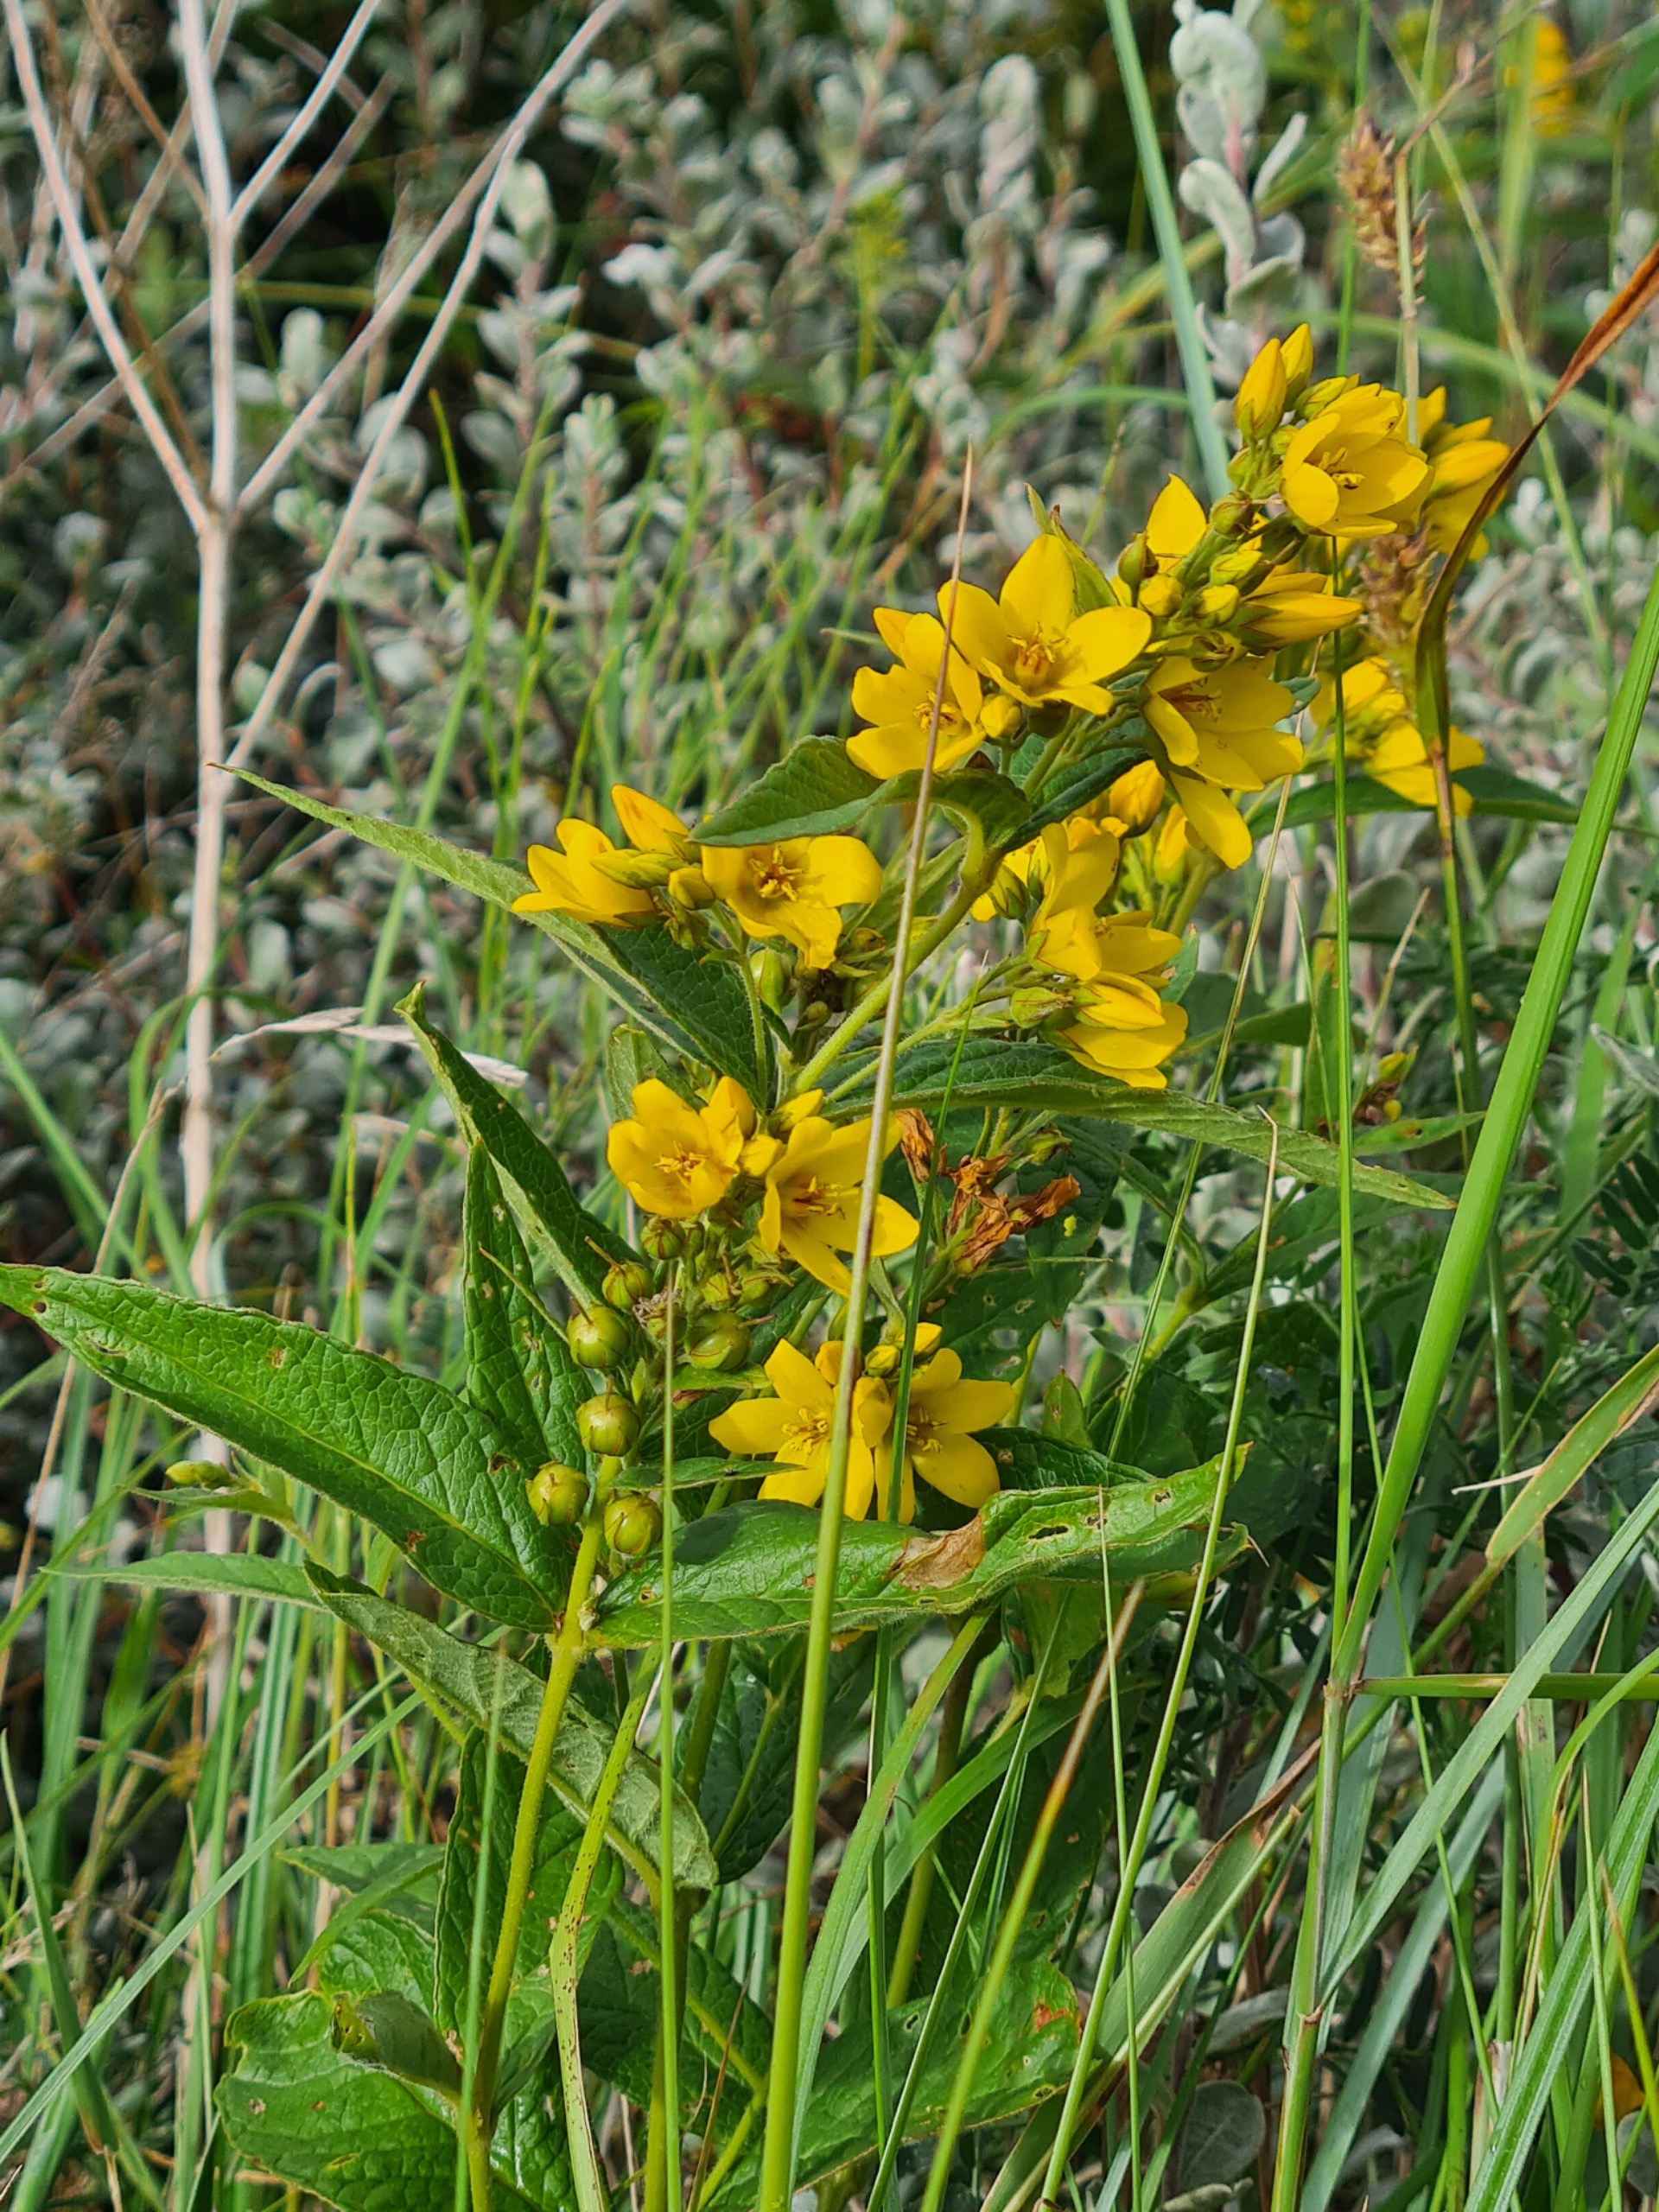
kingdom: Plantae
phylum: Tracheophyta
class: Magnoliopsida
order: Ericales
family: Primulaceae
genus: Lysimachia
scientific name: Lysimachia vulgaris
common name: Almindelig fredløs
